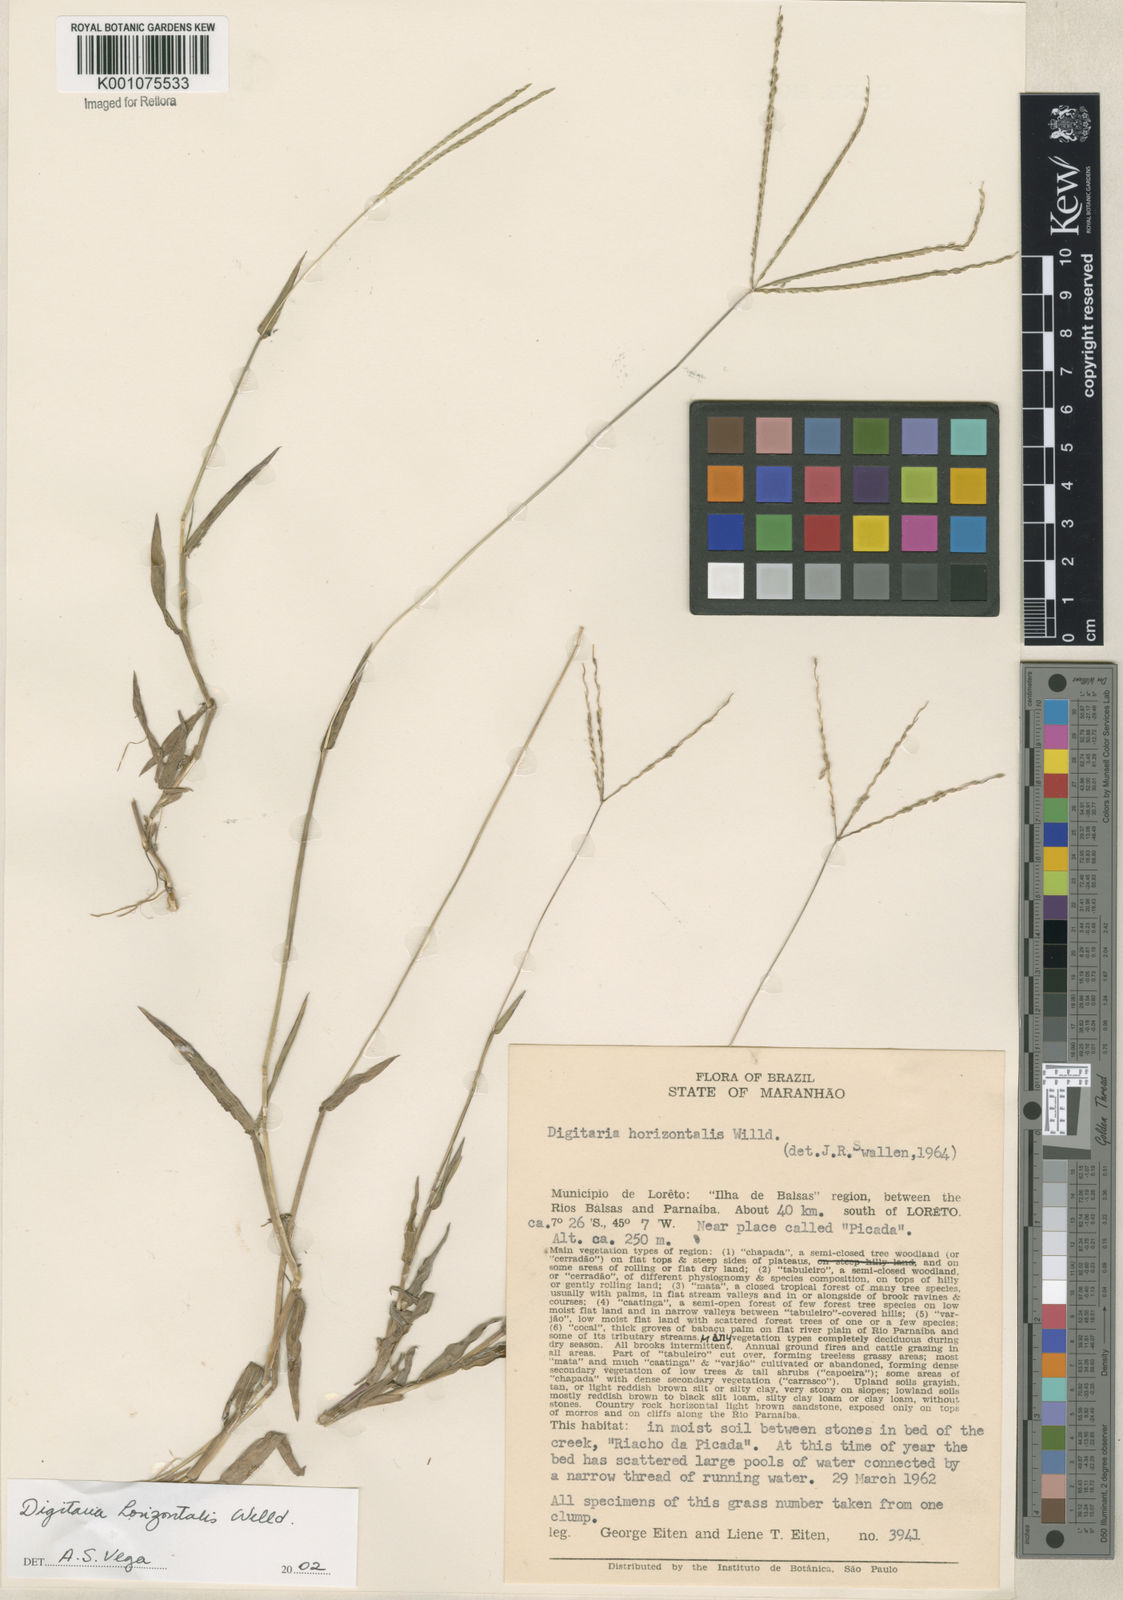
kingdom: Plantae
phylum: Tracheophyta
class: Liliopsida
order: Poales
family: Poaceae
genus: Digitaria
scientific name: Digitaria horizontalis
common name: Jamaican crabgrass
